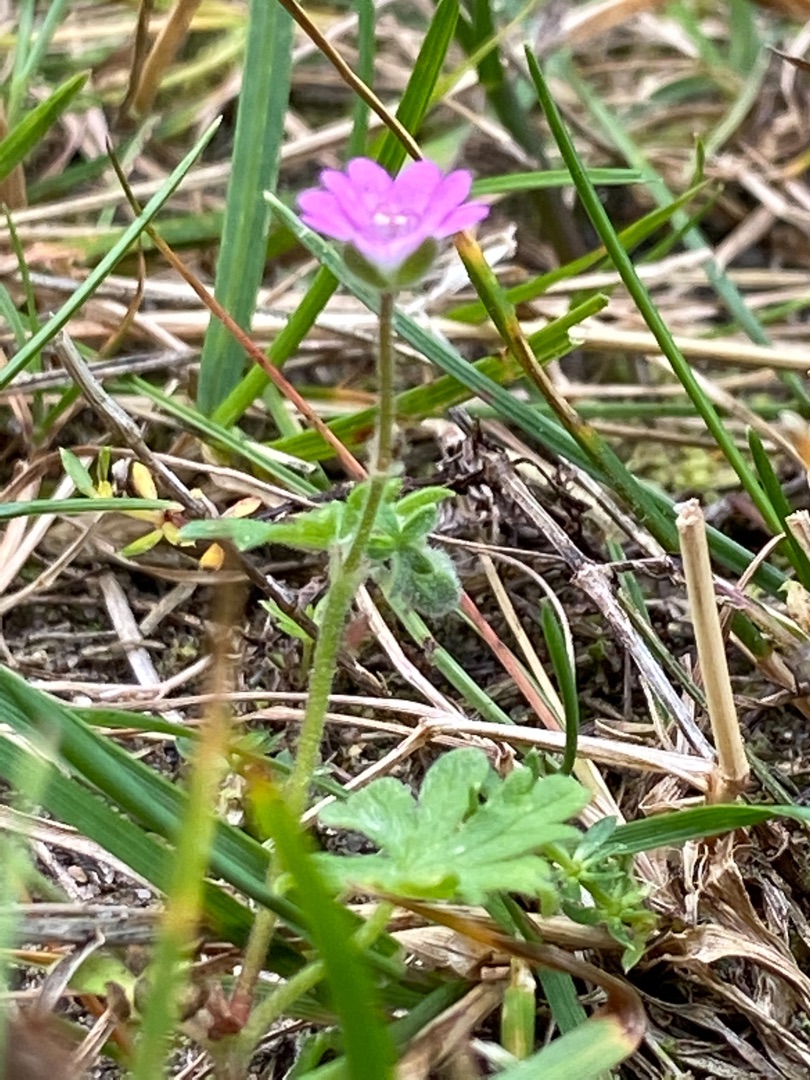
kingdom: Plantae
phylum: Tracheophyta
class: Magnoliopsida
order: Geraniales
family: Geraniaceae
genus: Geranium
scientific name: Geranium molle
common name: Blød storkenæb
